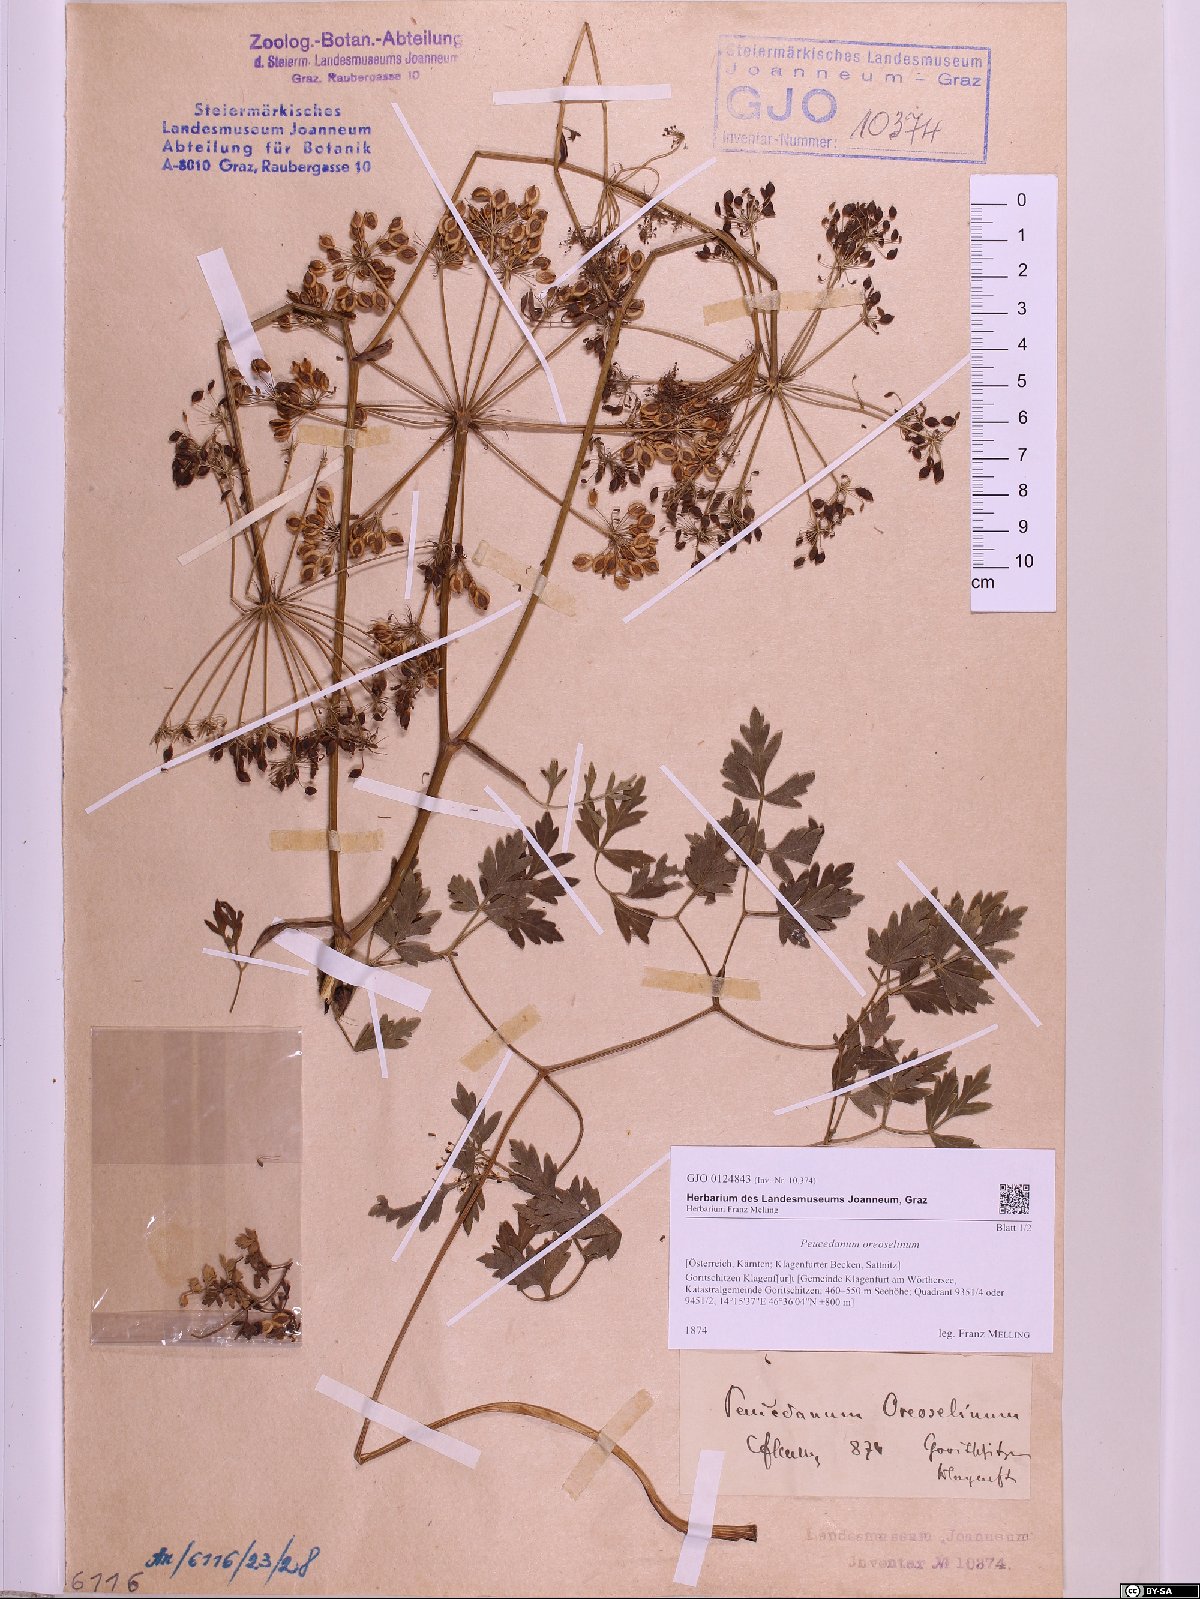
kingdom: Plantae
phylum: Tracheophyta
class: Magnoliopsida
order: Apiales
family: Apiaceae
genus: Oreoselinum
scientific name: Oreoselinum nigrum
